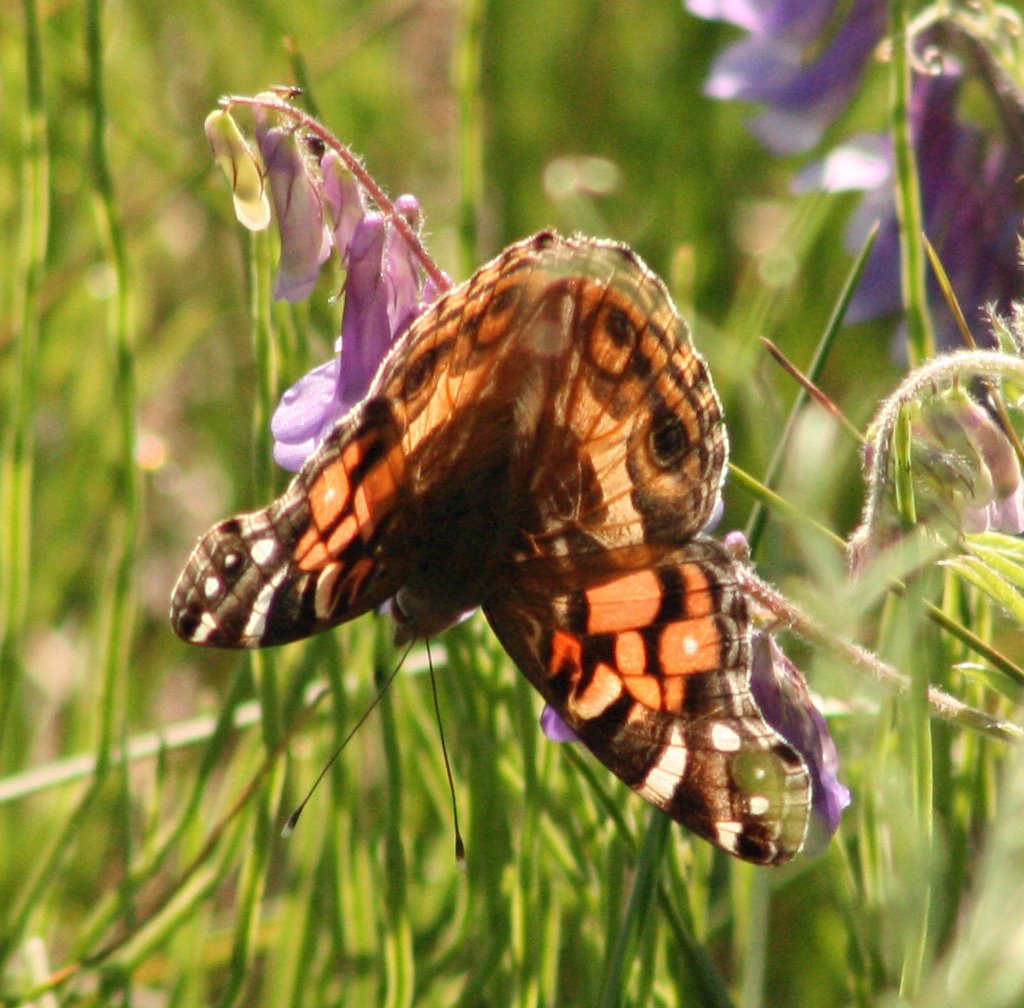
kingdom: Animalia
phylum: Arthropoda
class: Insecta
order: Lepidoptera
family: Nymphalidae
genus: Vanessa
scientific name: Vanessa virginiensis
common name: American Lady
